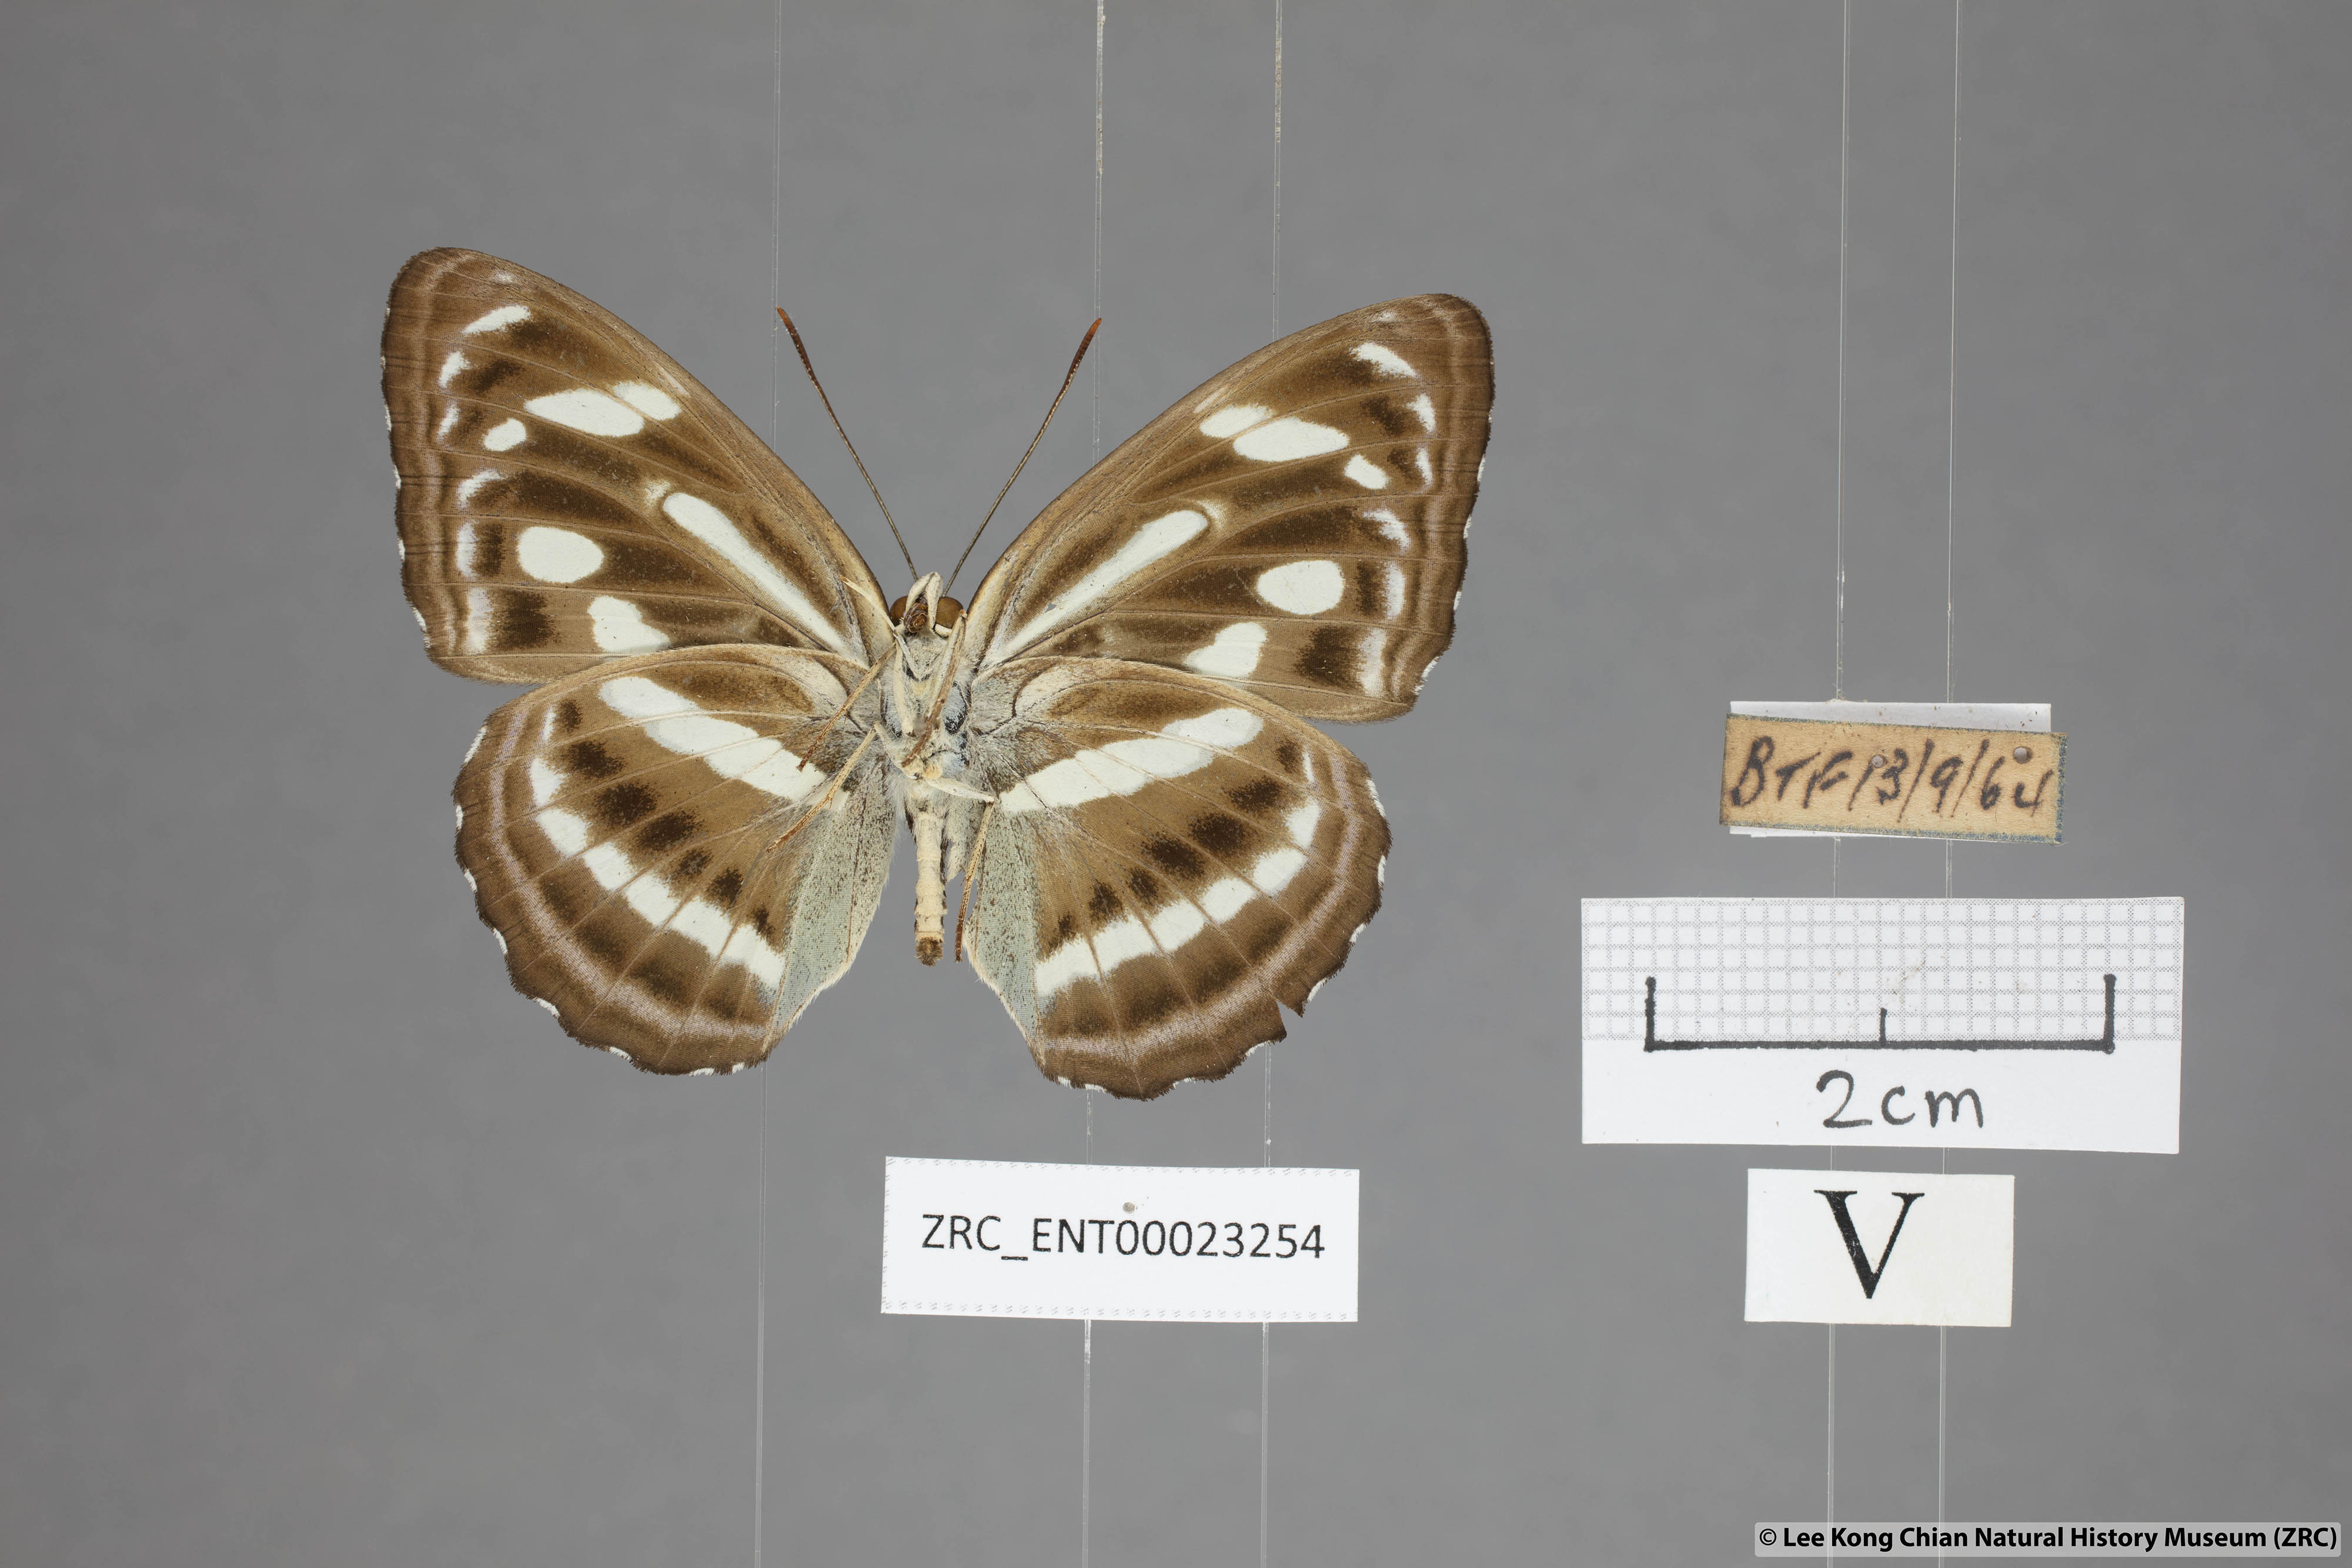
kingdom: Animalia
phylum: Arthropoda
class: Insecta
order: Lepidoptera
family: Nymphalidae
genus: Parathyma
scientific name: Parathyma pravara
